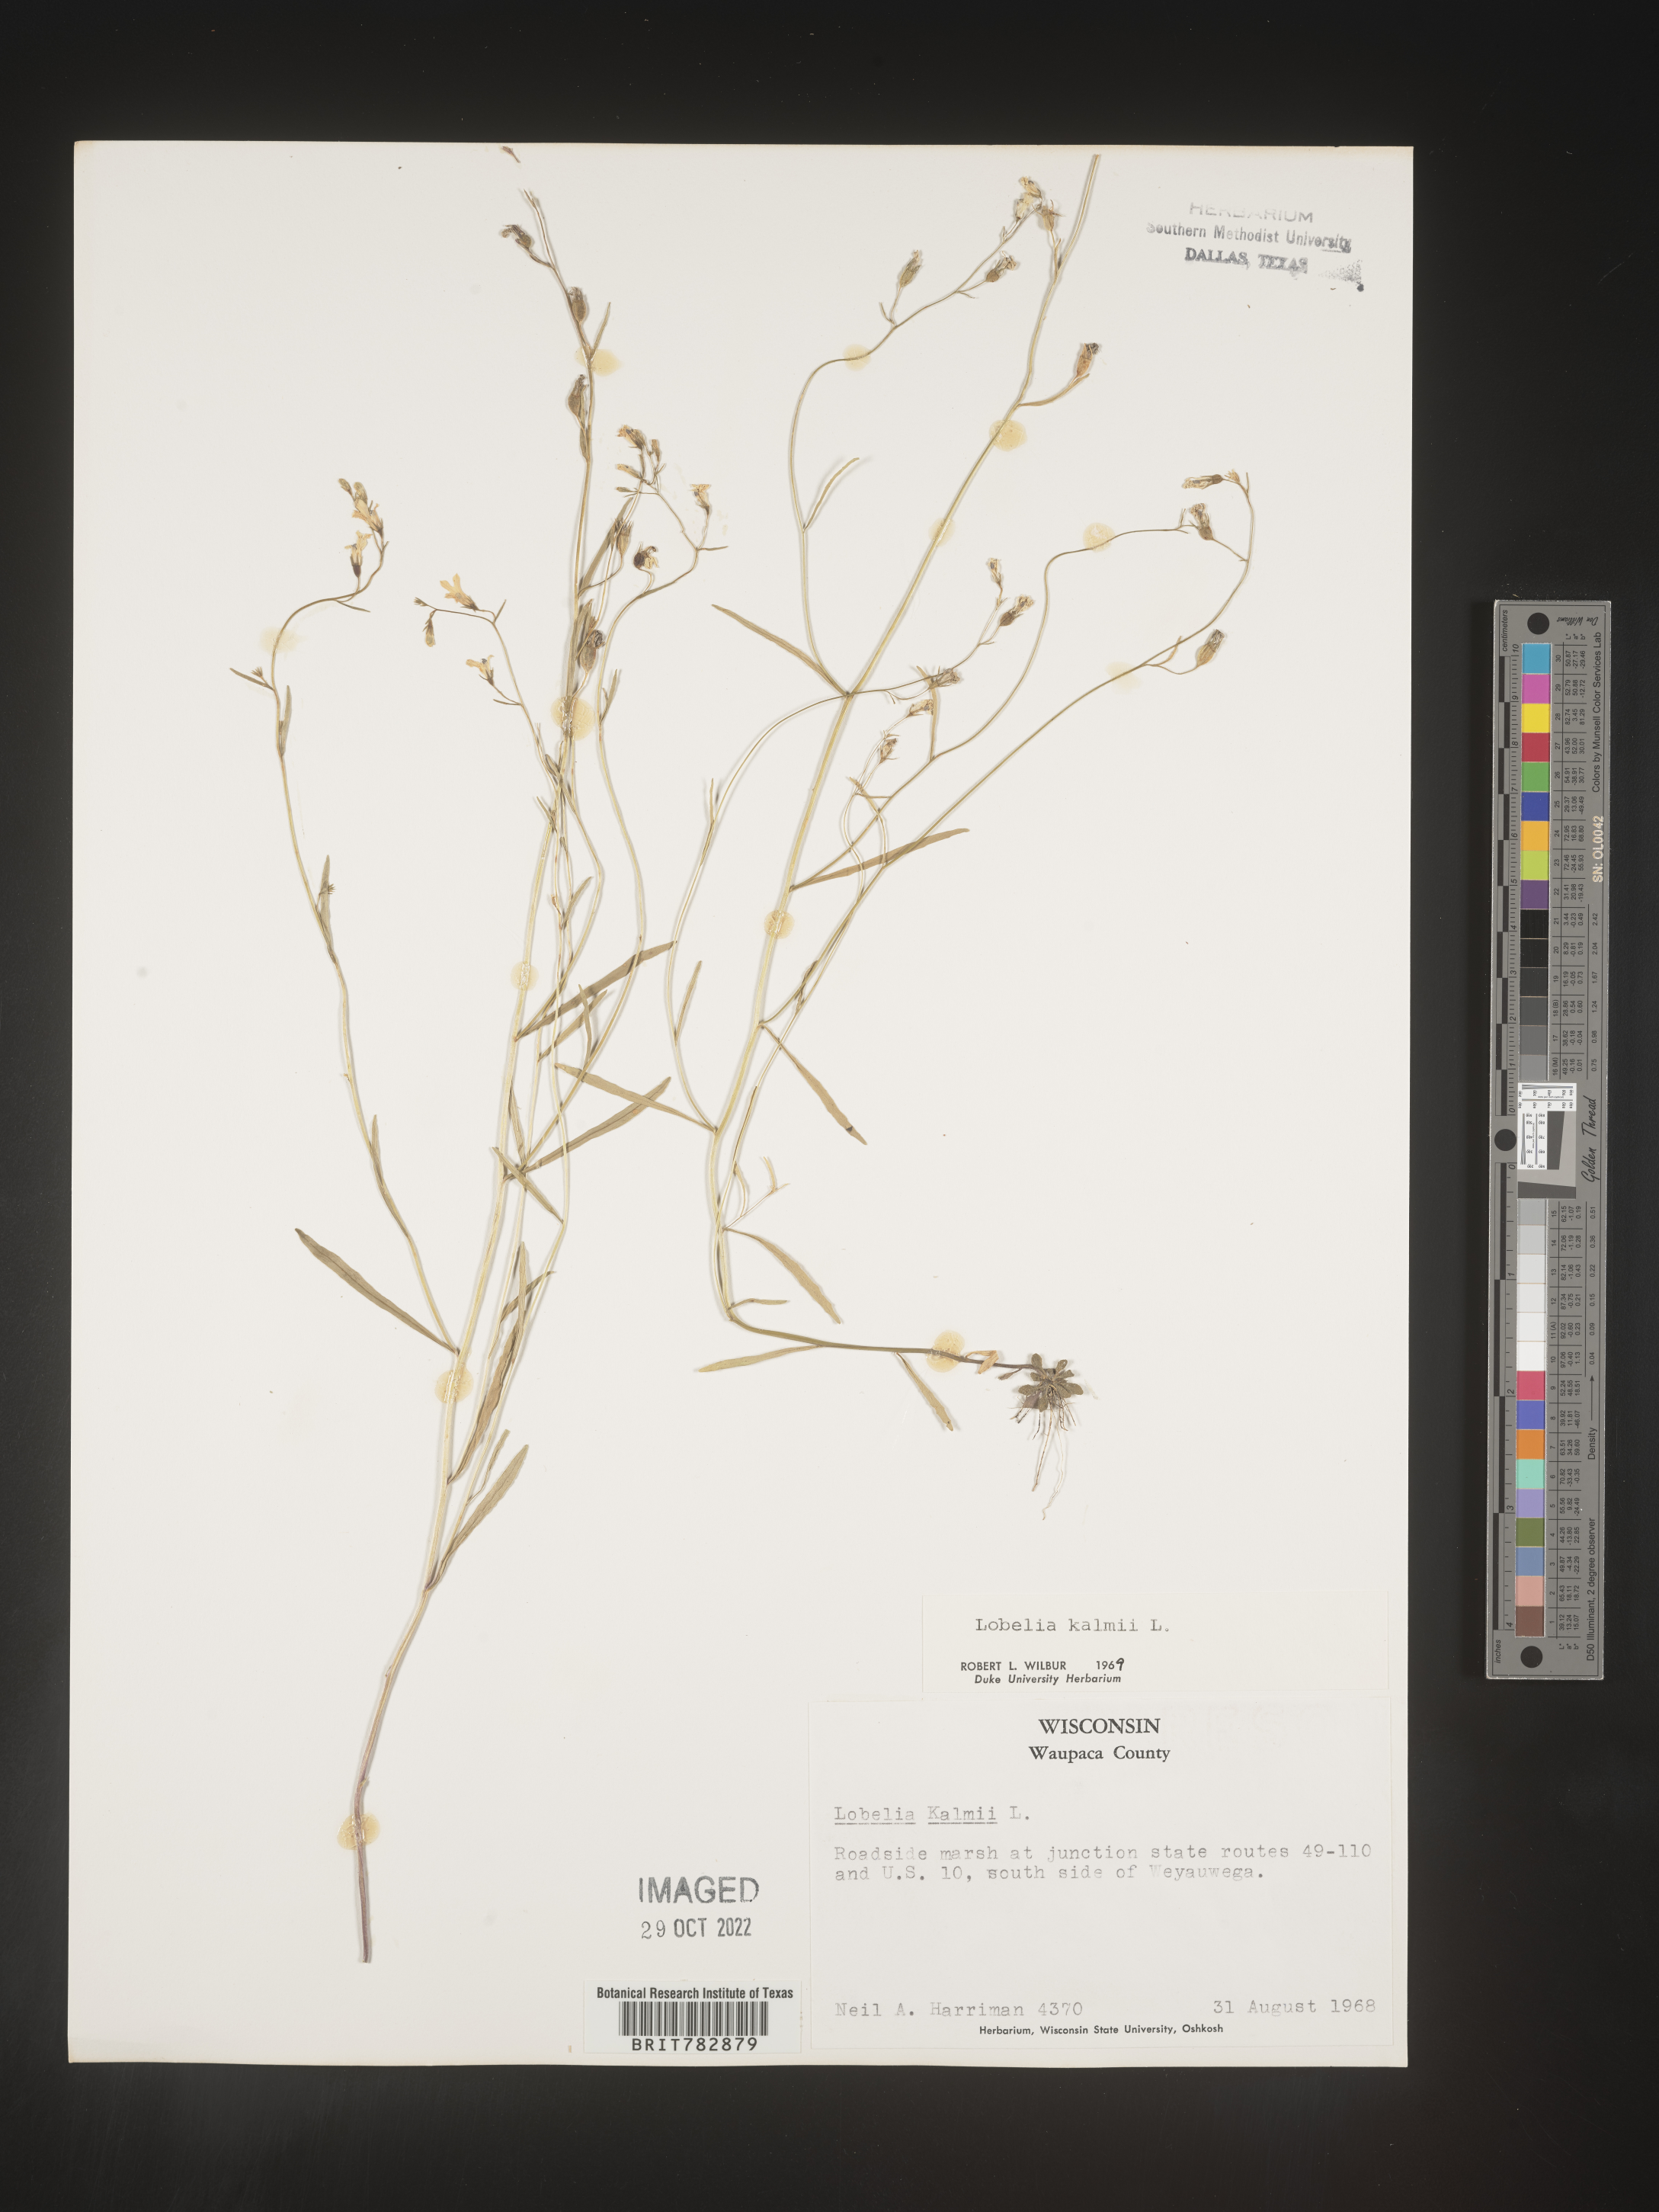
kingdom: Plantae
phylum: Tracheophyta
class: Magnoliopsida
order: Asterales
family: Campanulaceae
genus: Lobelia
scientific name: Lobelia
